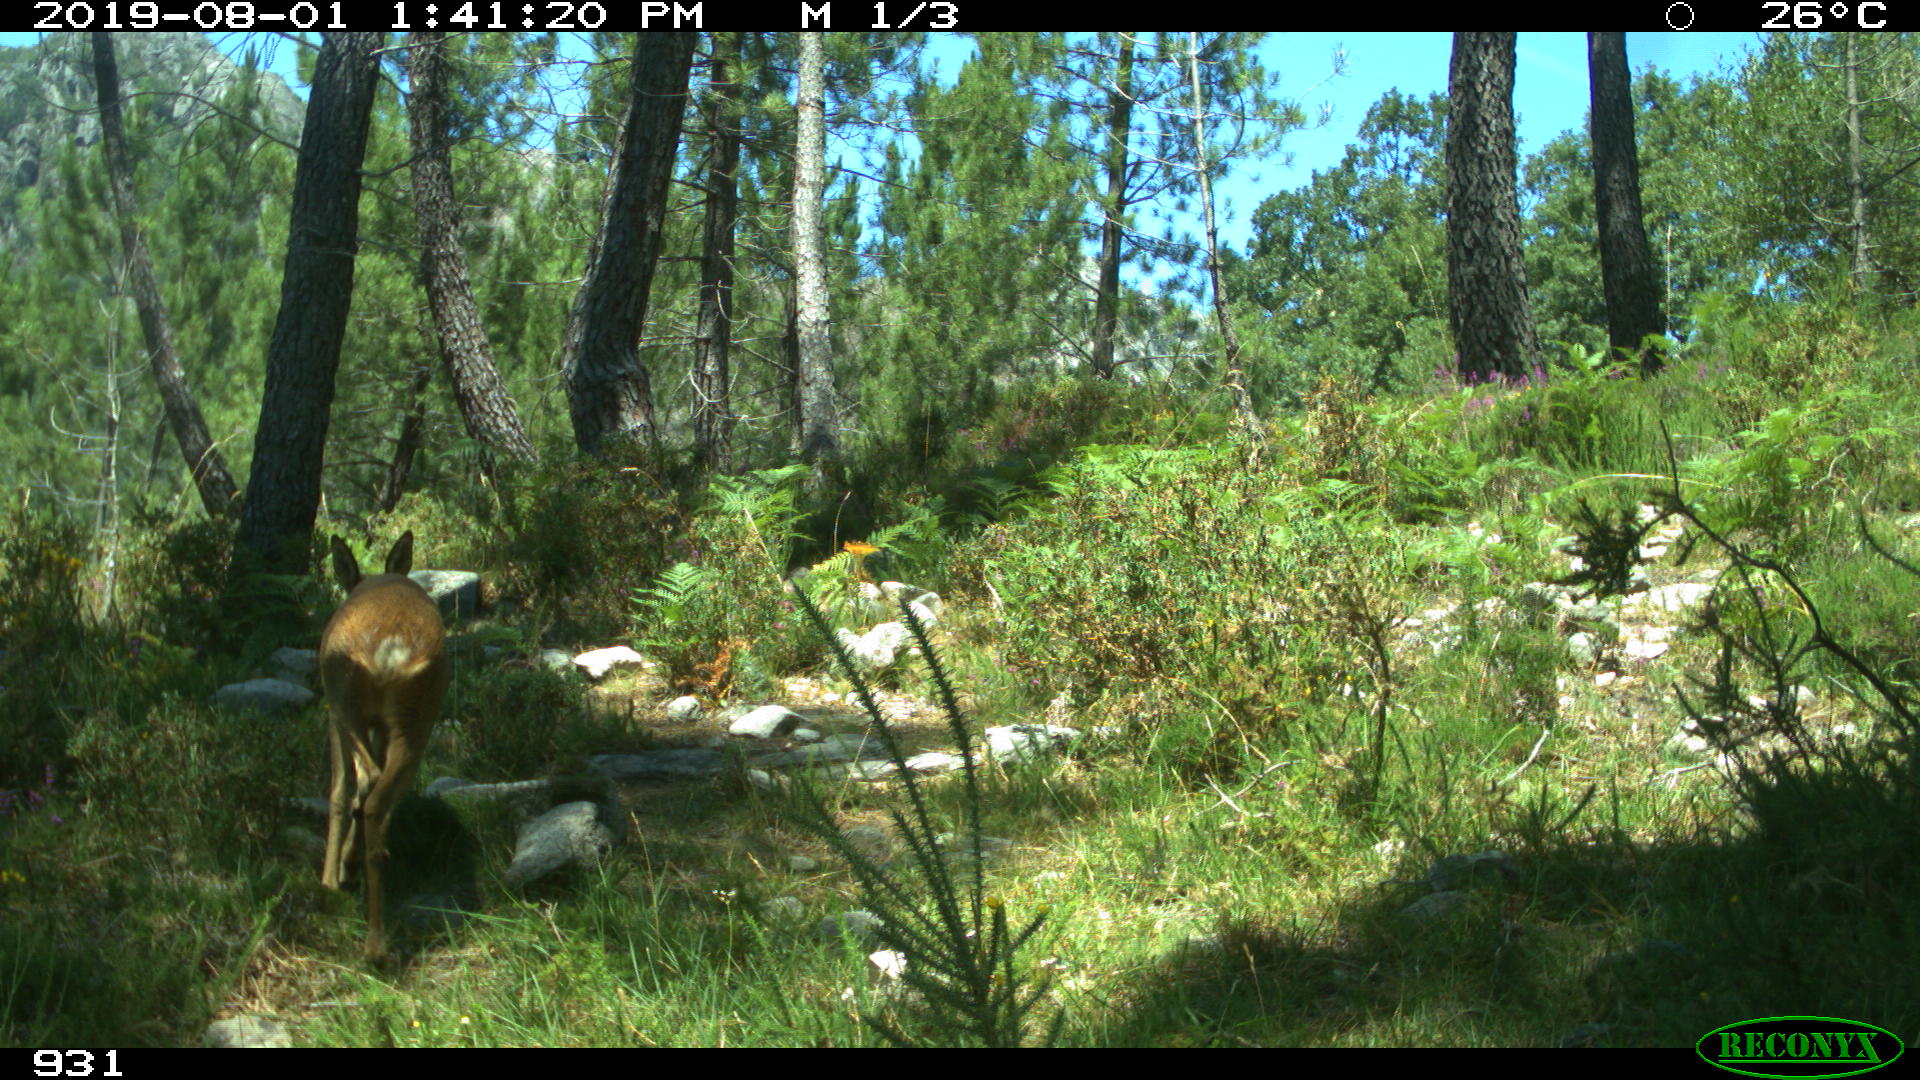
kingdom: Animalia
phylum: Chordata
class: Mammalia
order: Artiodactyla
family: Cervidae
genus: Capreolus
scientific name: Capreolus capreolus
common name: Western roe deer
